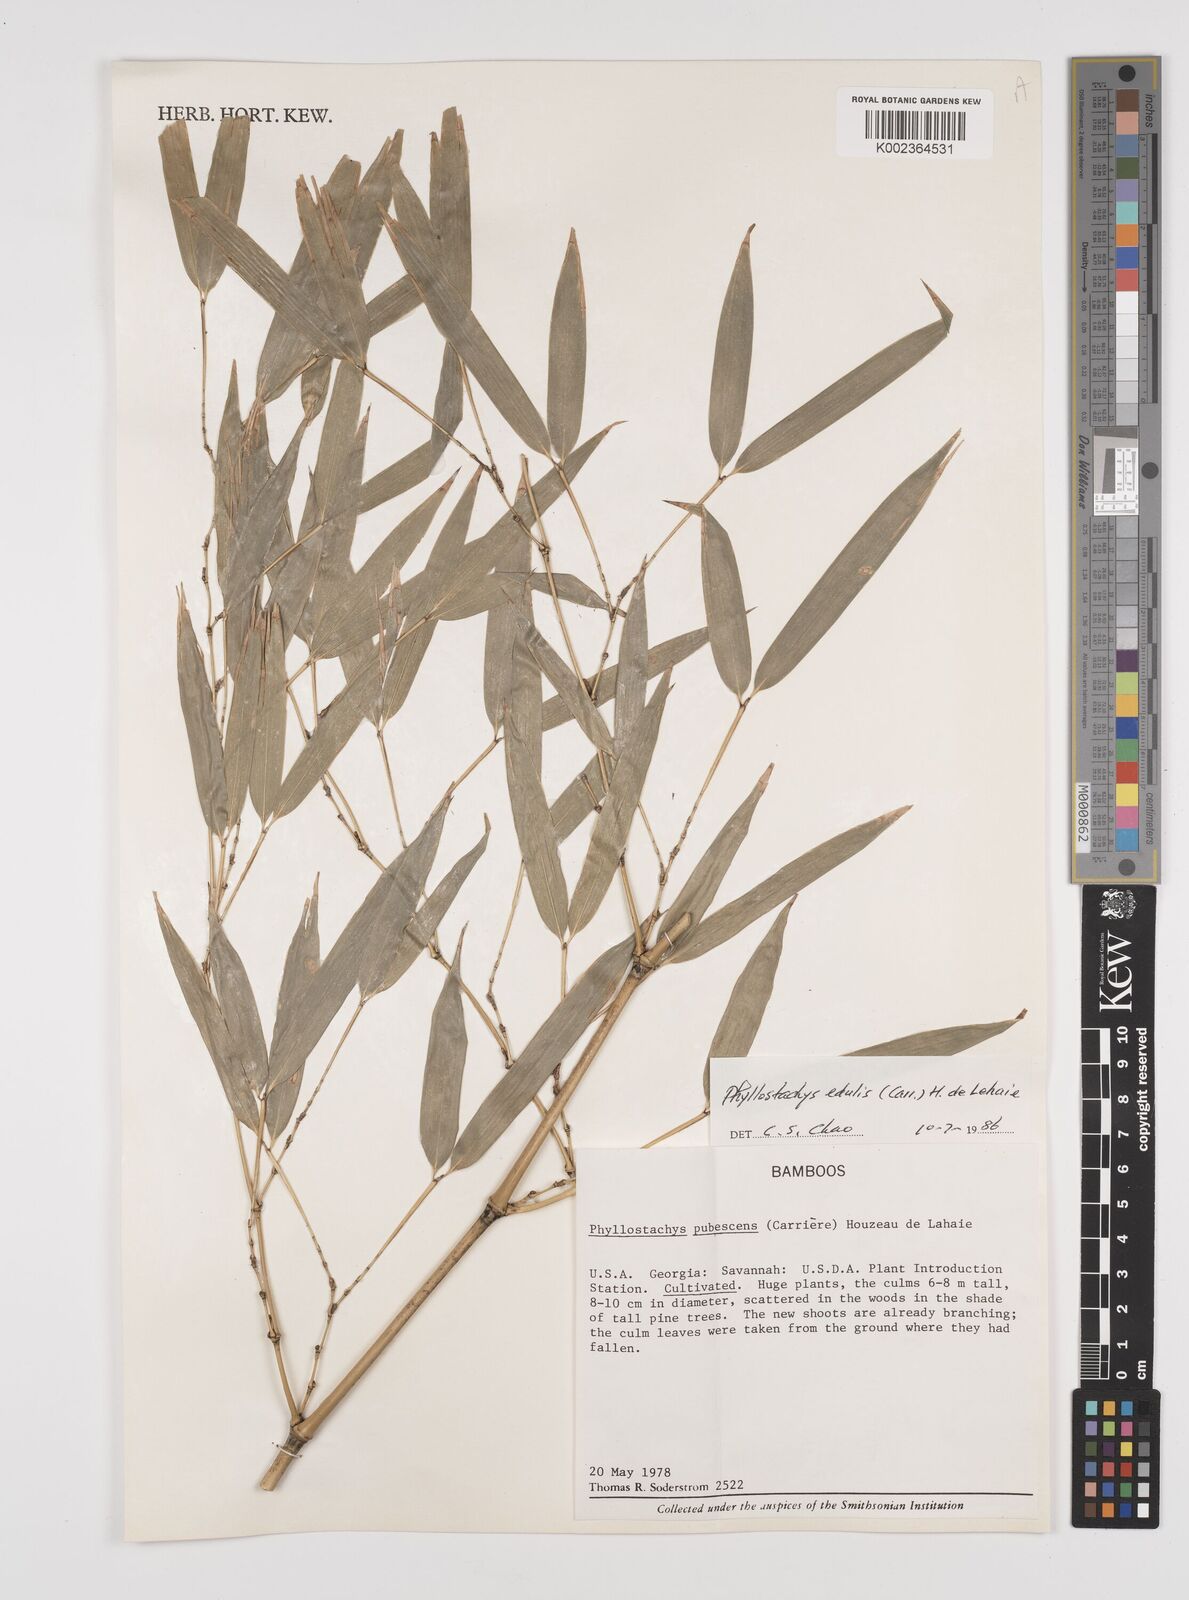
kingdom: Plantae
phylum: Tracheophyta
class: Liliopsida
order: Poales
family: Poaceae
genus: Phyllostachys
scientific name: Phyllostachys edulis
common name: Tortoise shell bamboo
